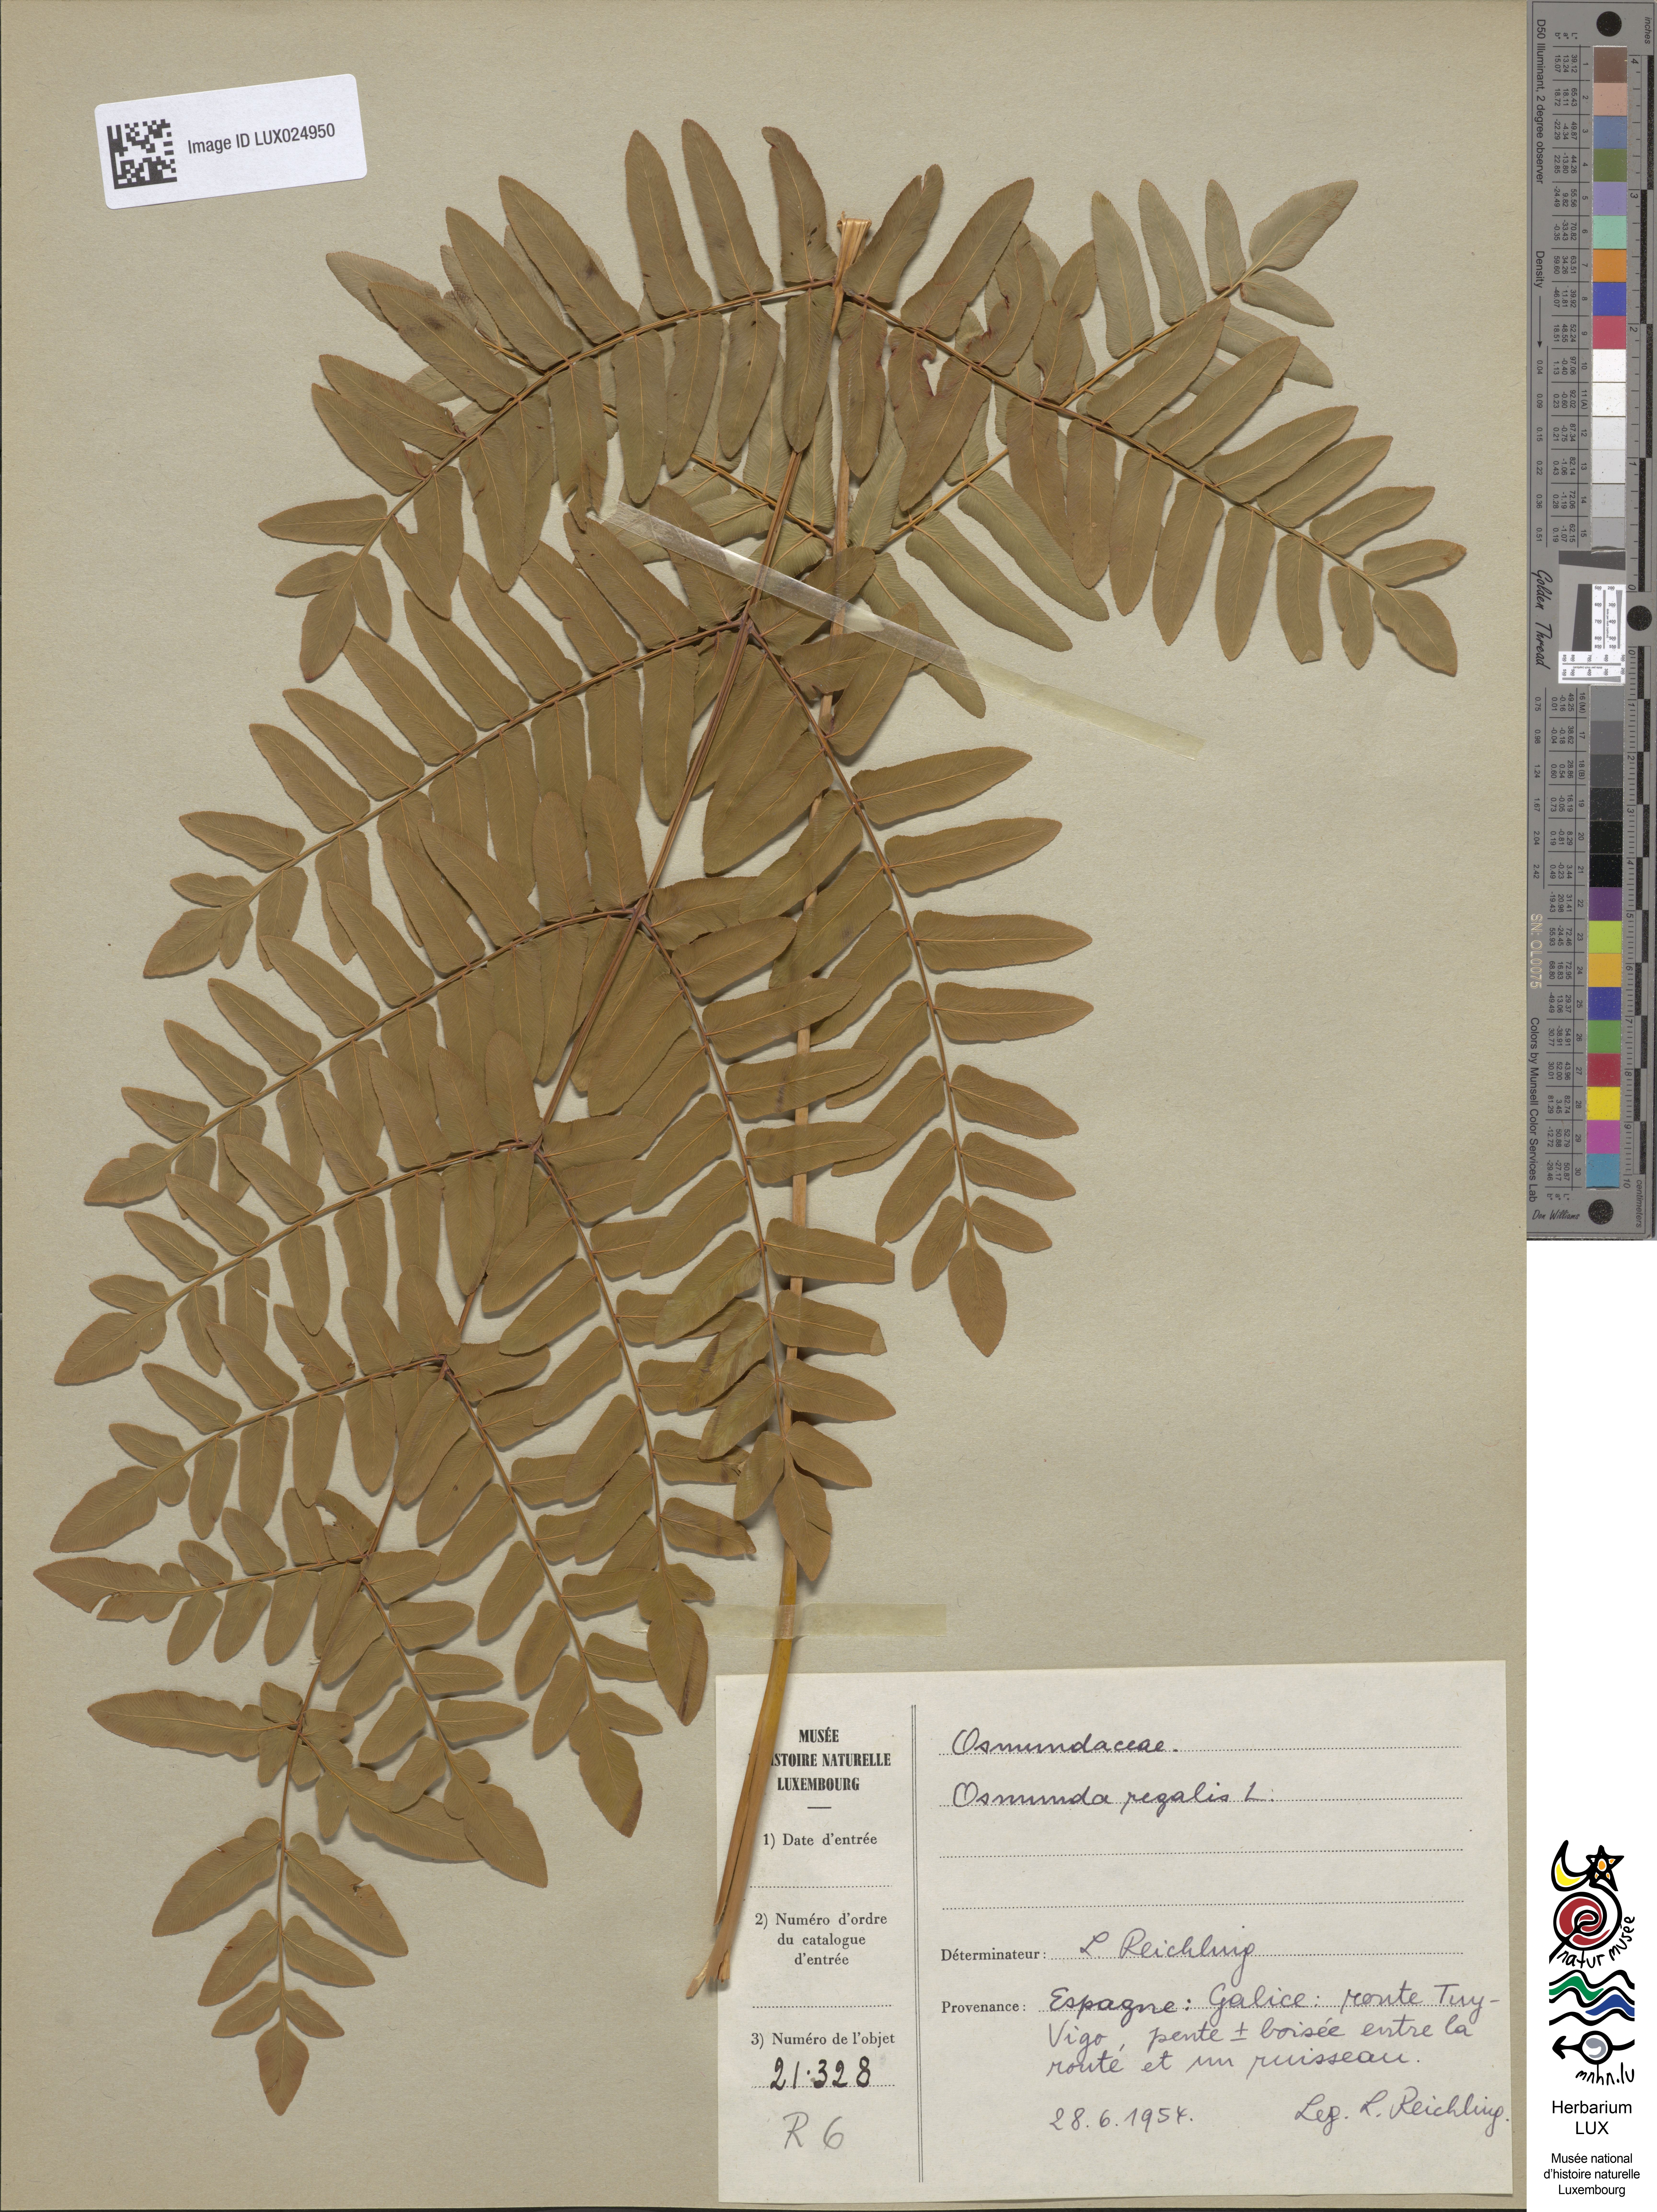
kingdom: Plantae
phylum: Tracheophyta
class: Polypodiopsida
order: Osmundales
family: Osmundaceae
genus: Osmunda
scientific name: Osmunda regalis
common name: Royal fern
